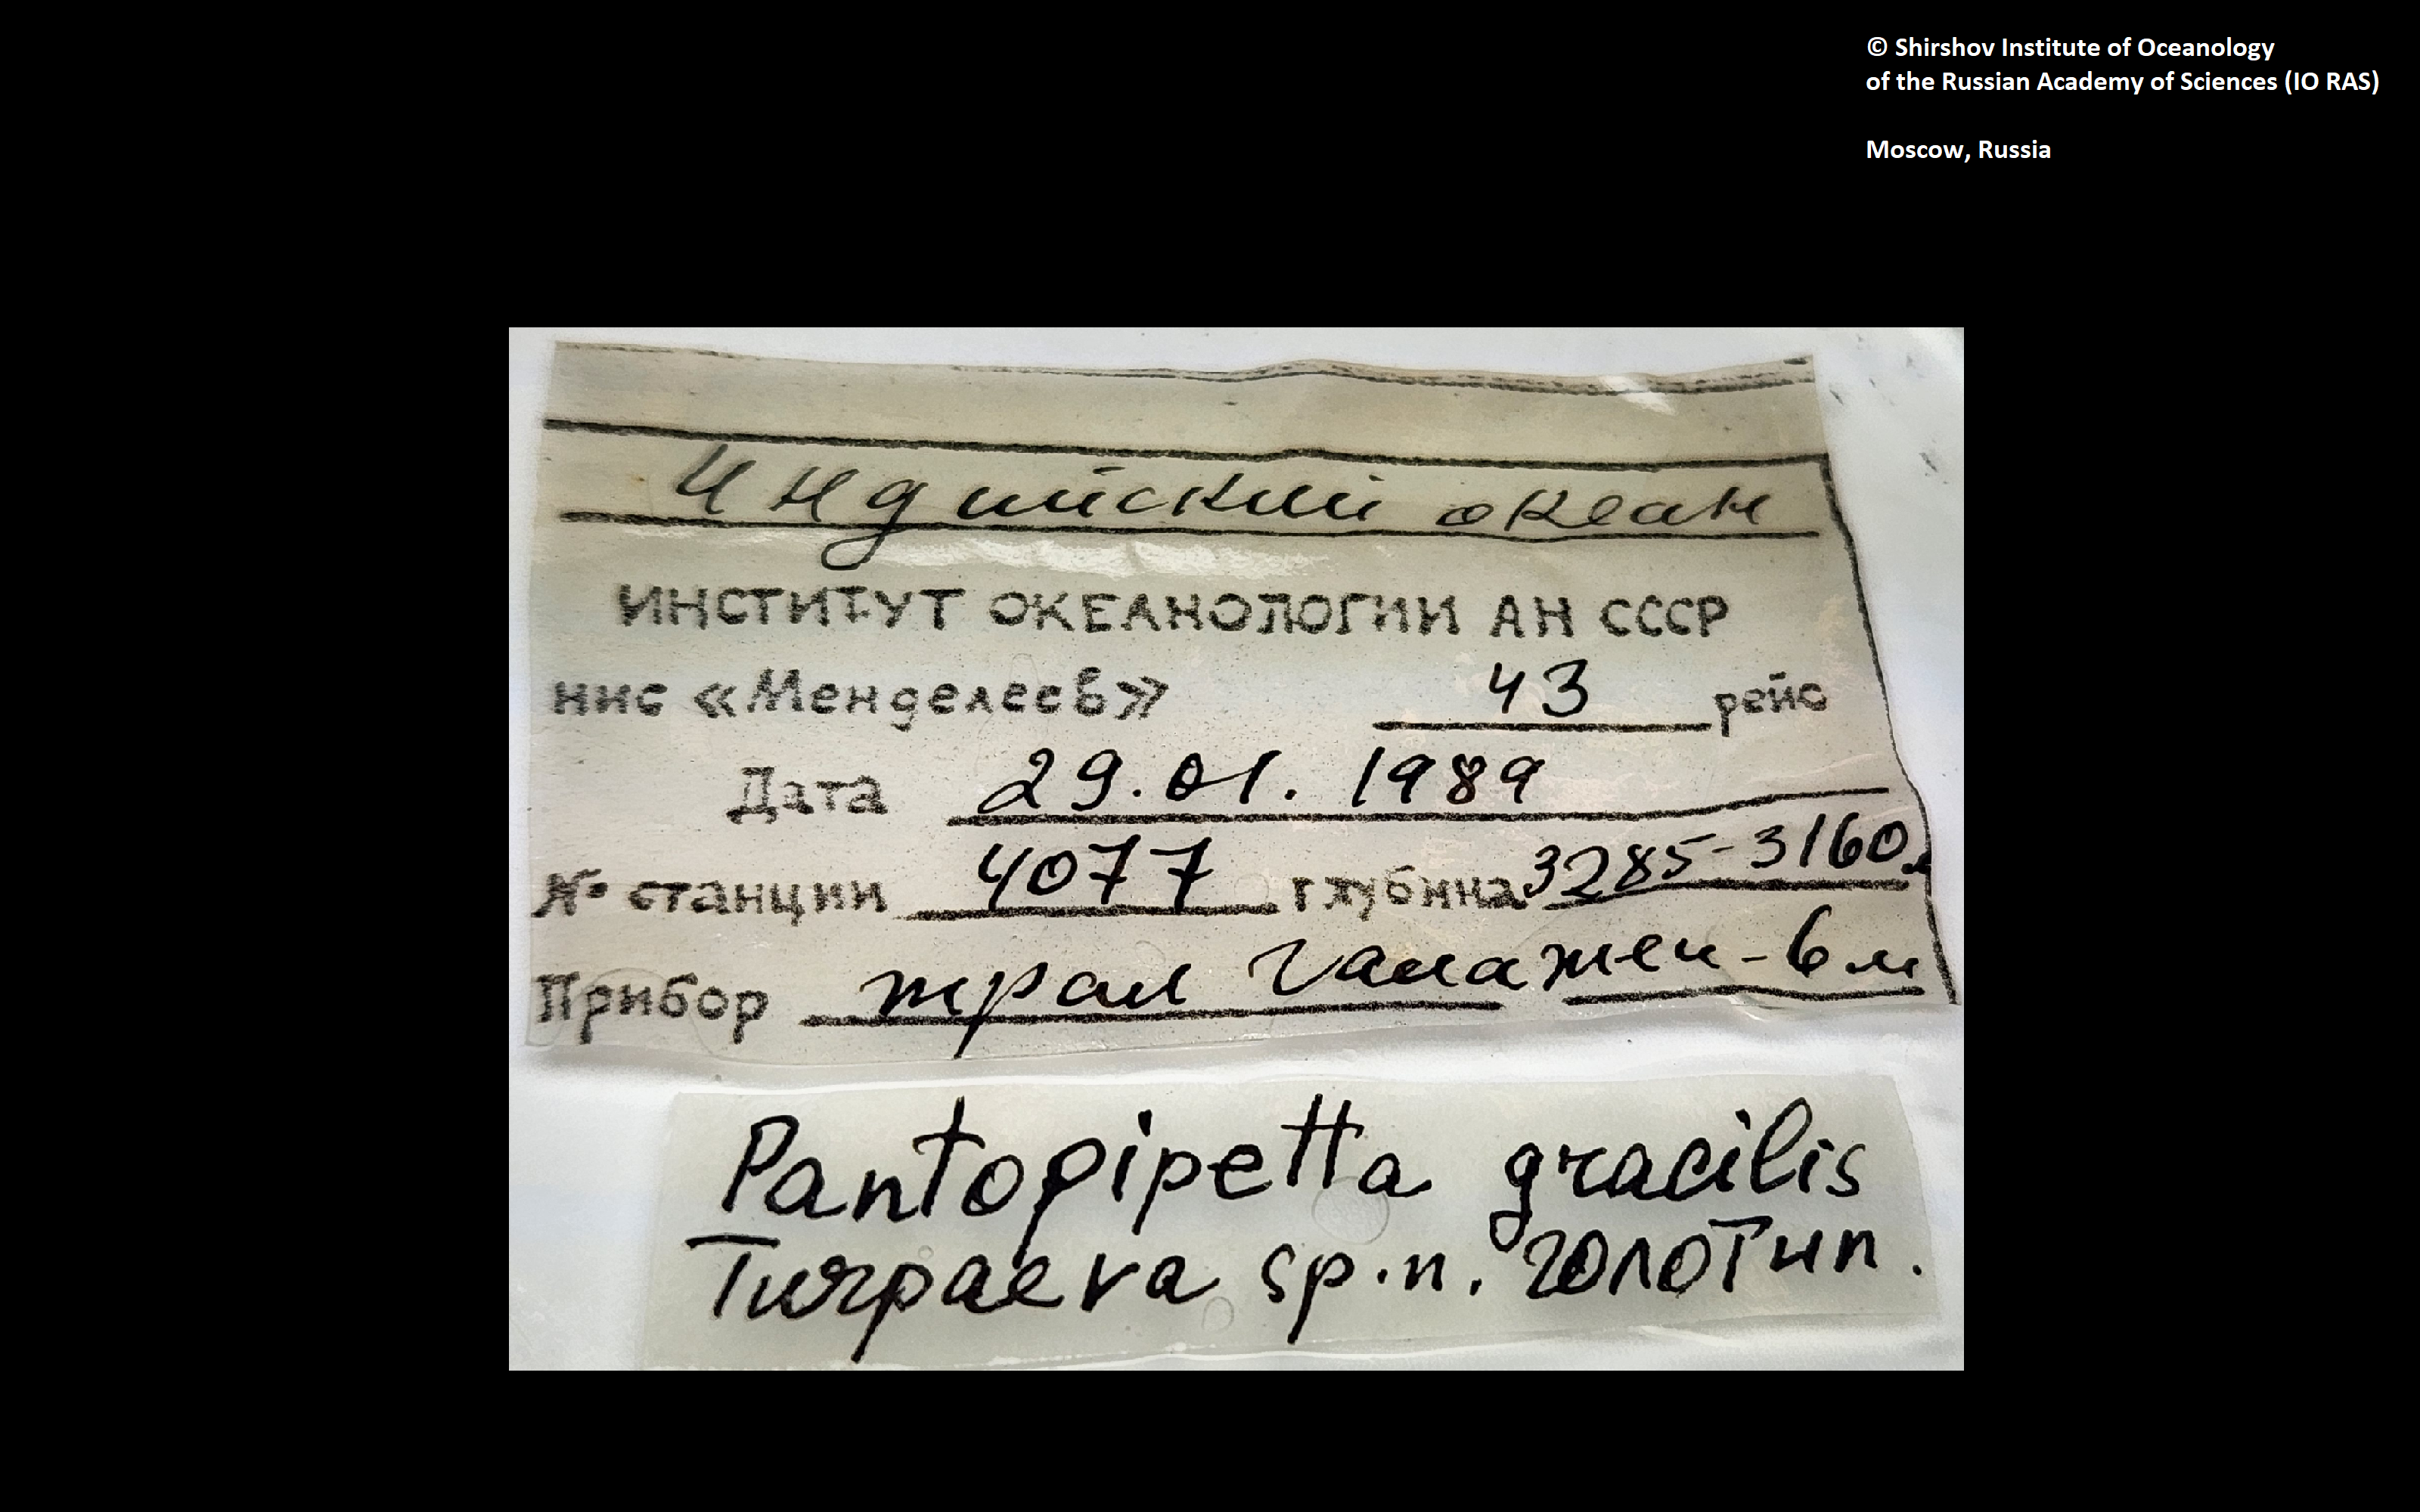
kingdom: Animalia
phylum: Arthropoda
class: Pycnogonida
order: Pantopoda
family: Austrodecidae
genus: Pantopipetta
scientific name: Pantopipetta gracilis
